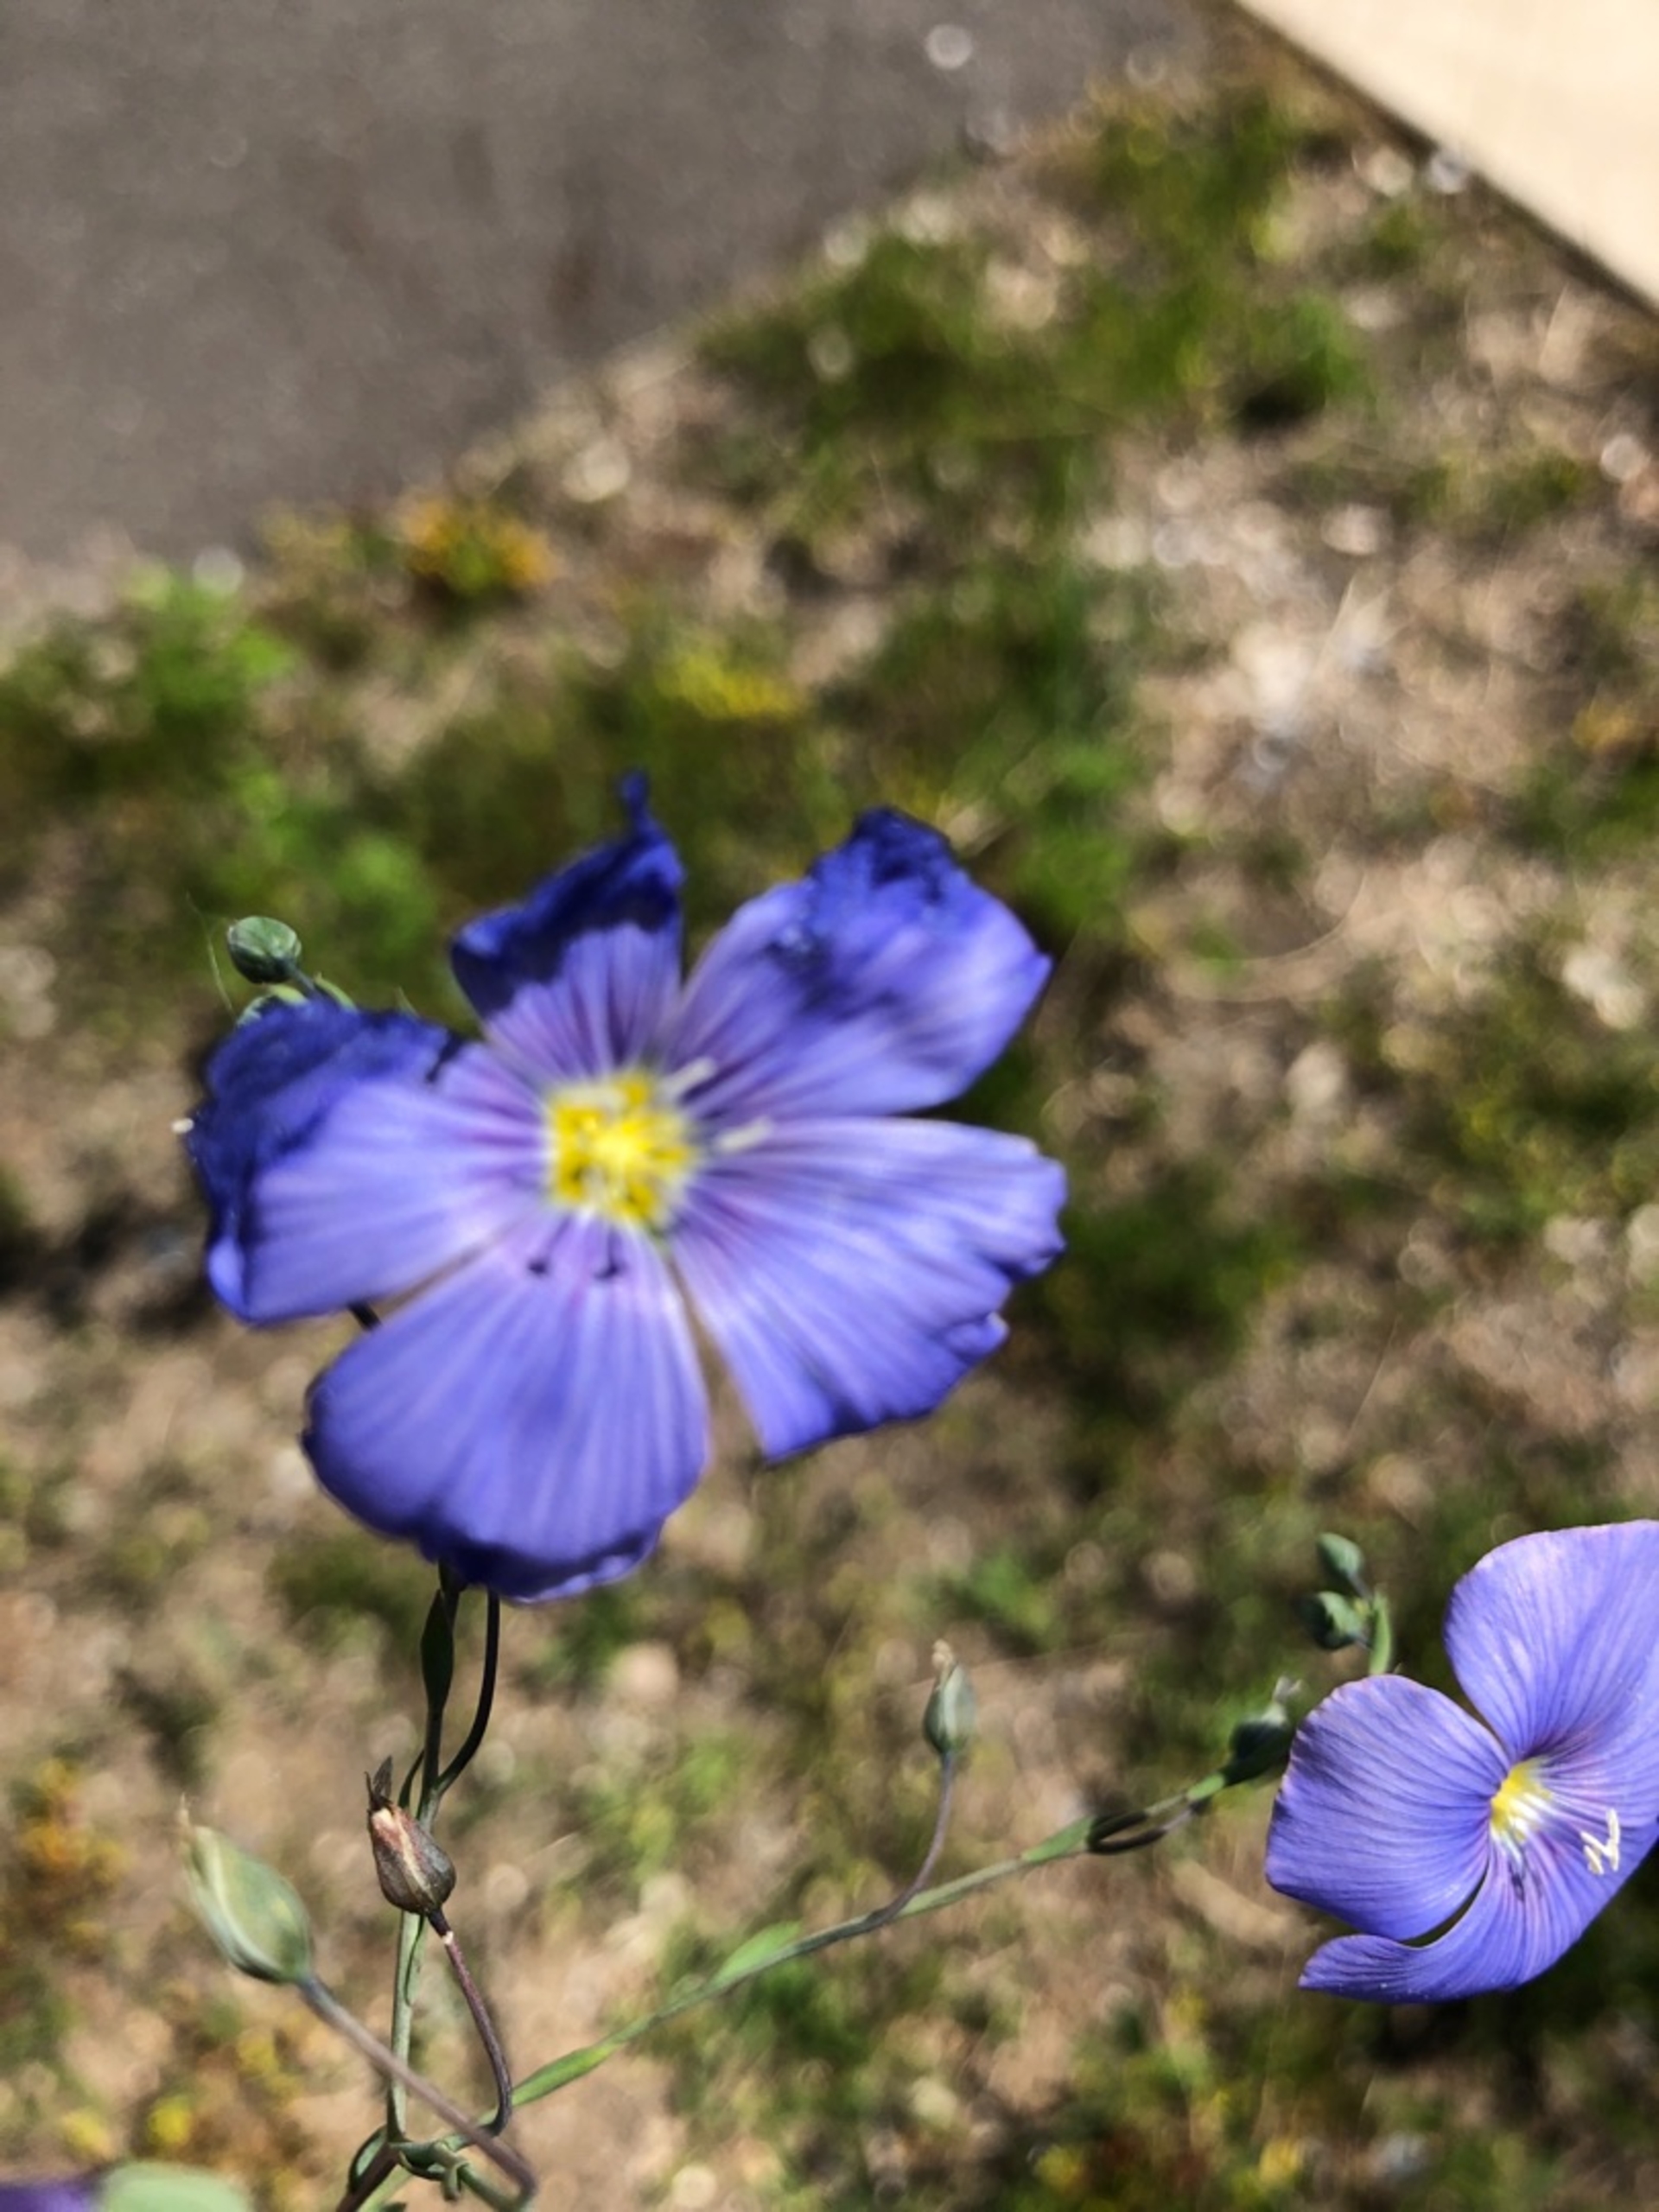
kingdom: Plantae
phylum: Tracheophyta
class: Magnoliopsida
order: Malpighiales
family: Linaceae
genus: Linum
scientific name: Linum austriacum
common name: Østrigsk hør
